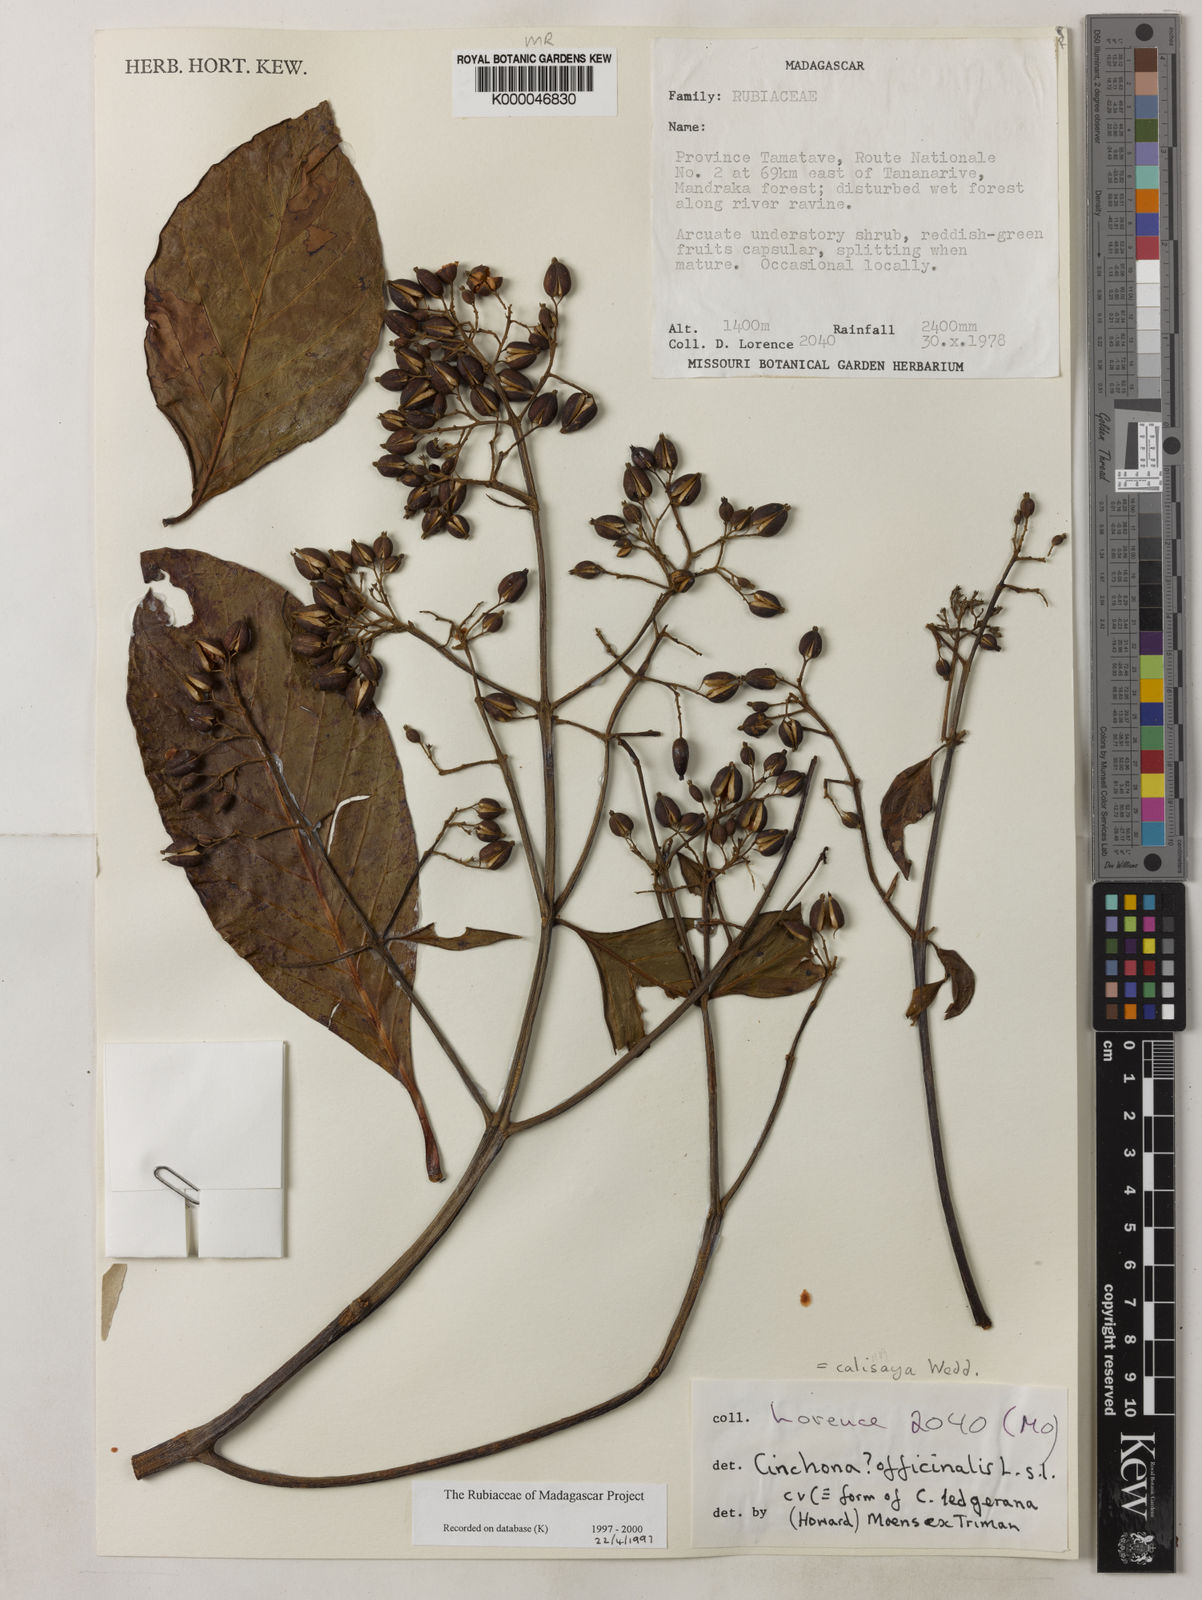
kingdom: Plantae
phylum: Tracheophyta
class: Magnoliopsida
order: Gentianales
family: Rubiaceae
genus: Cinchona
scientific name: Cinchona calisaya
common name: Ledgerbark
